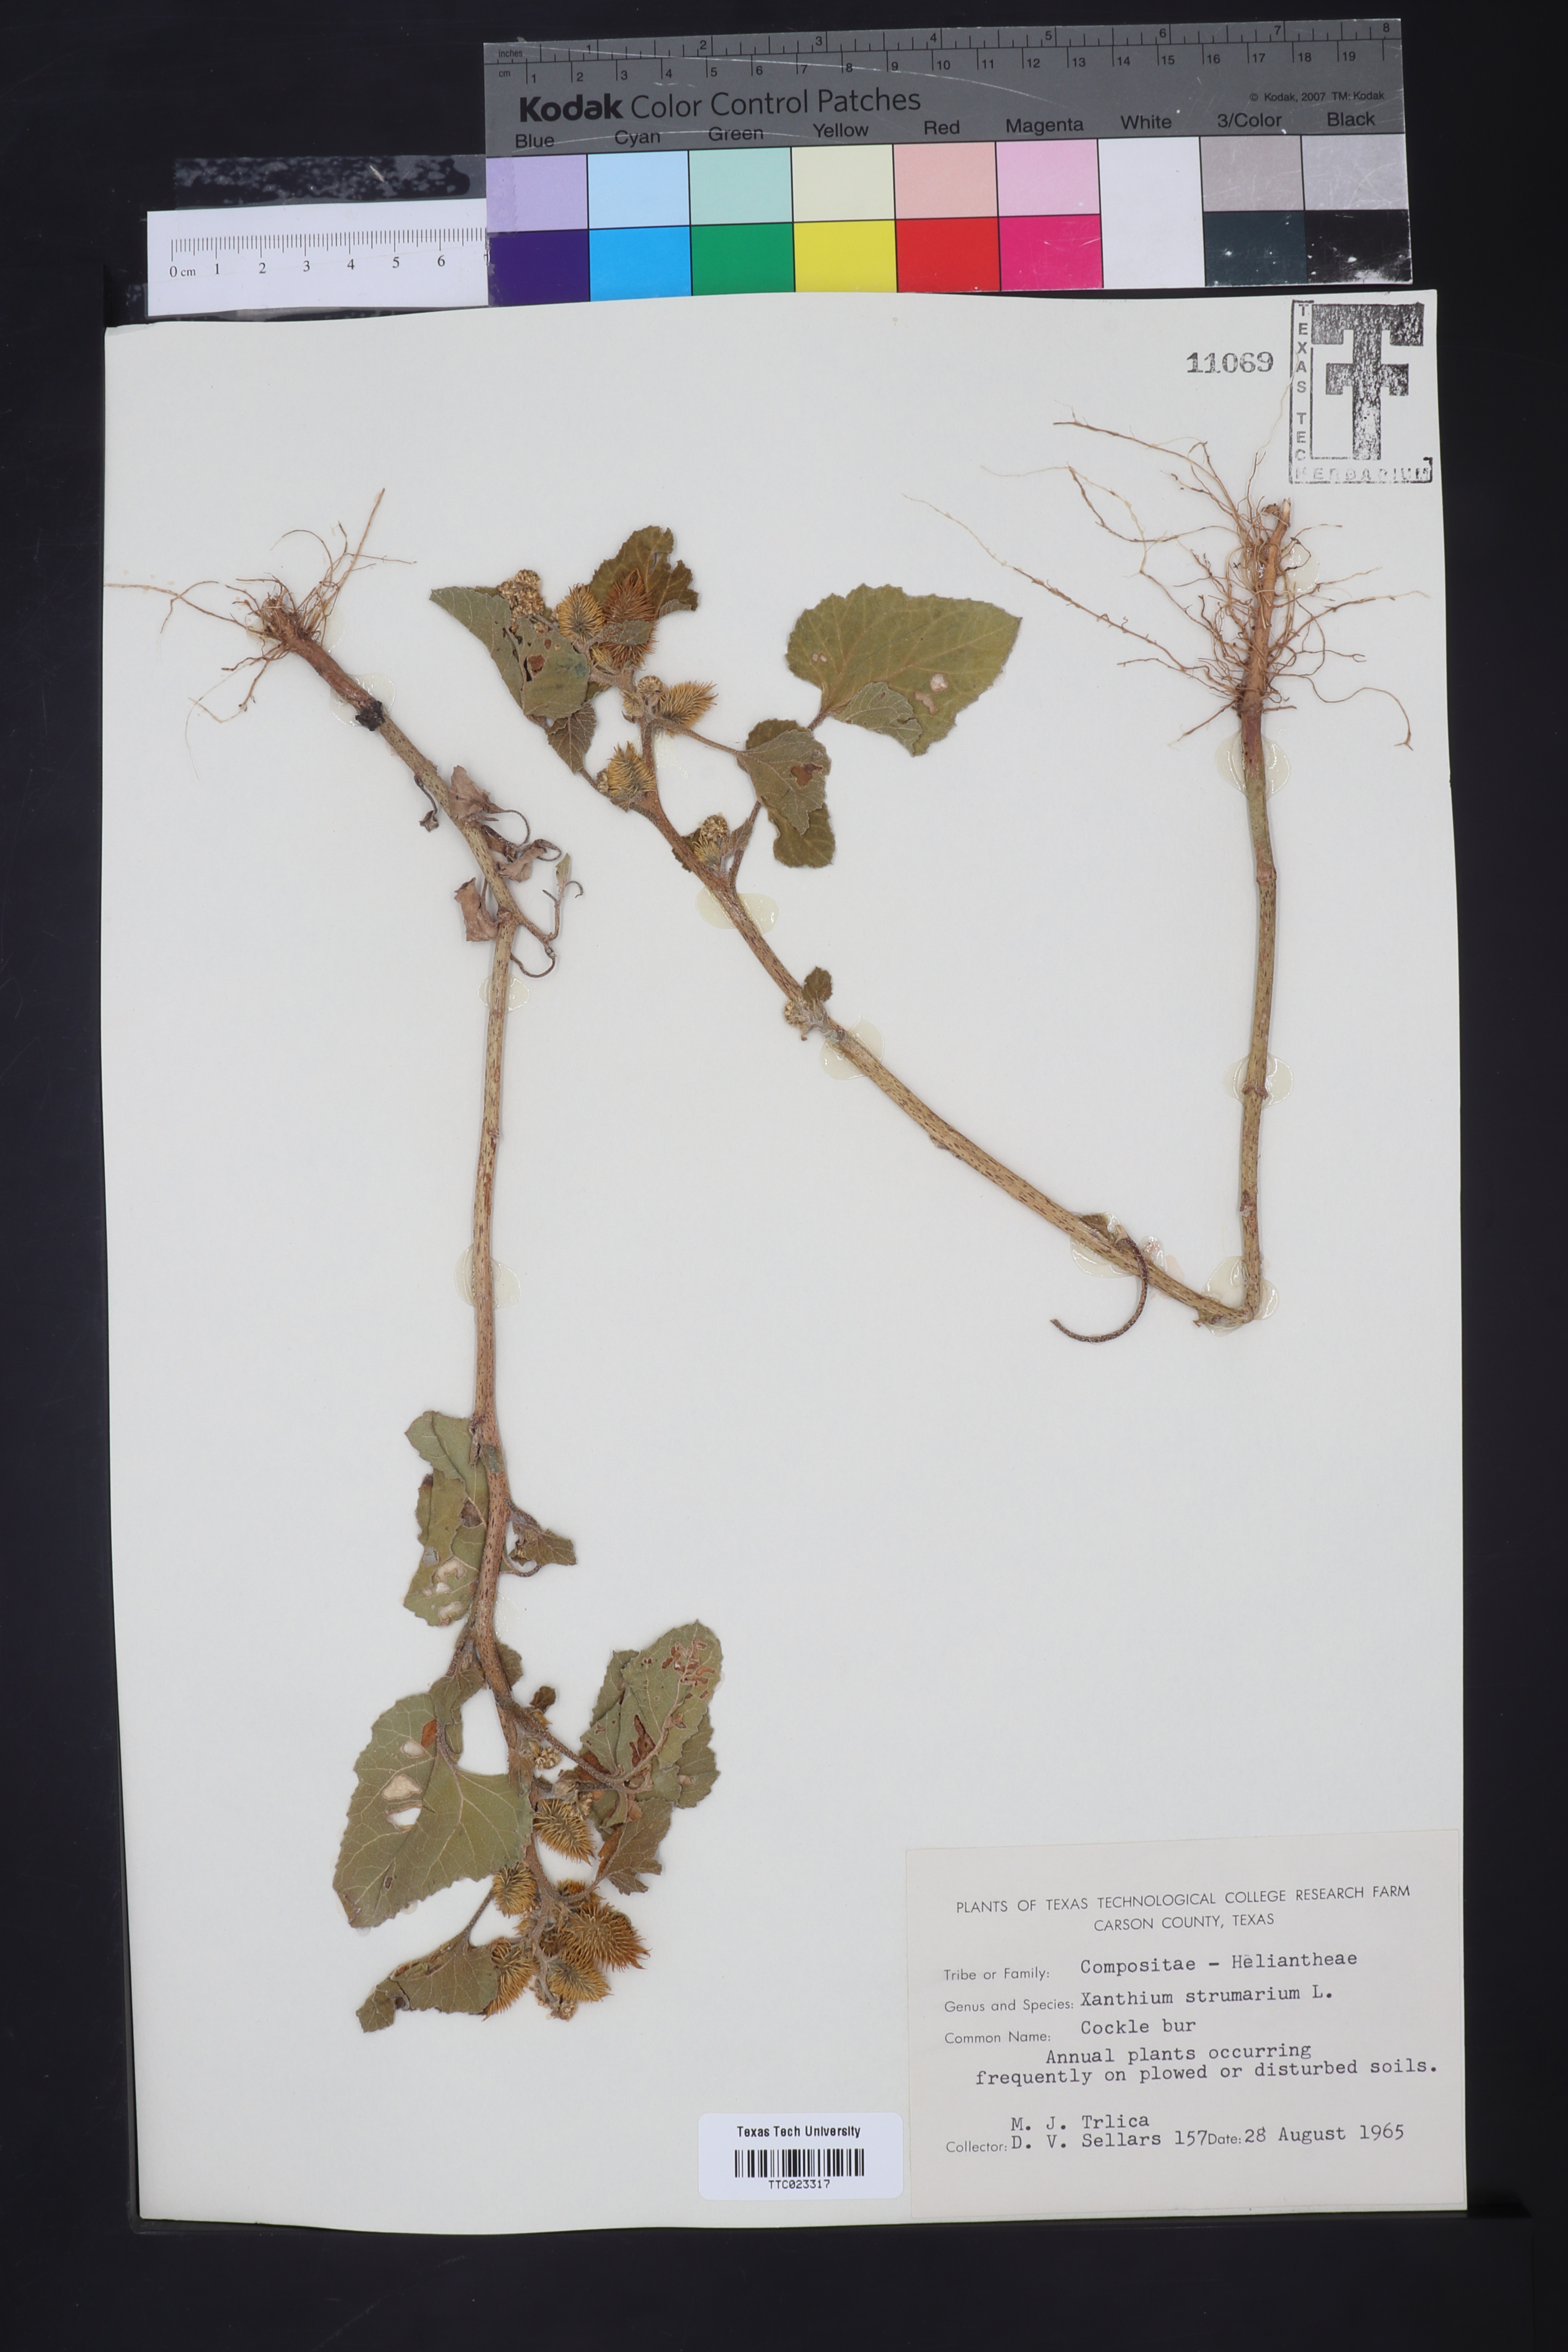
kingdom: Plantae
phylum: Tracheophyta
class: Magnoliopsida
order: Asterales
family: Asteraceae
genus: Xanthium
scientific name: Xanthium strumarium
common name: Rough cocklebur
